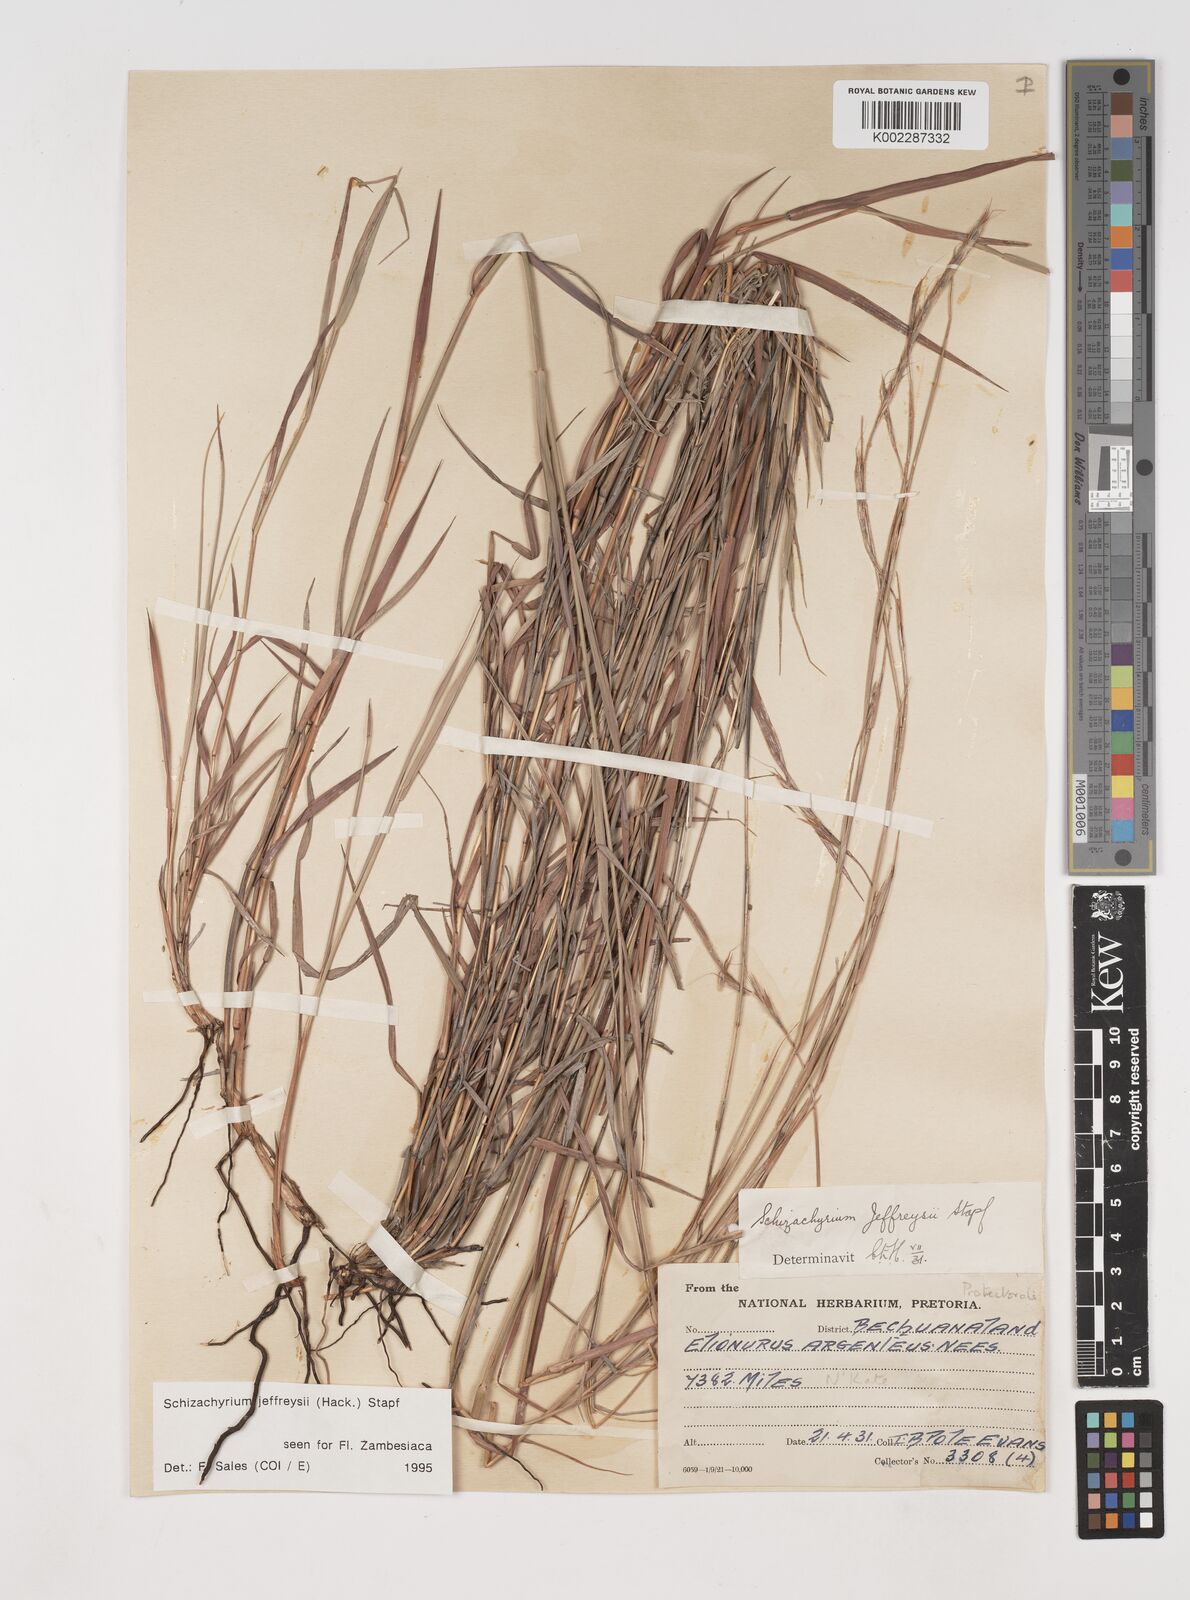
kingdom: Plantae
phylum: Tracheophyta
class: Liliopsida
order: Poales
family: Poaceae
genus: Schizachyrium
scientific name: Schizachyrium jeffreysii
